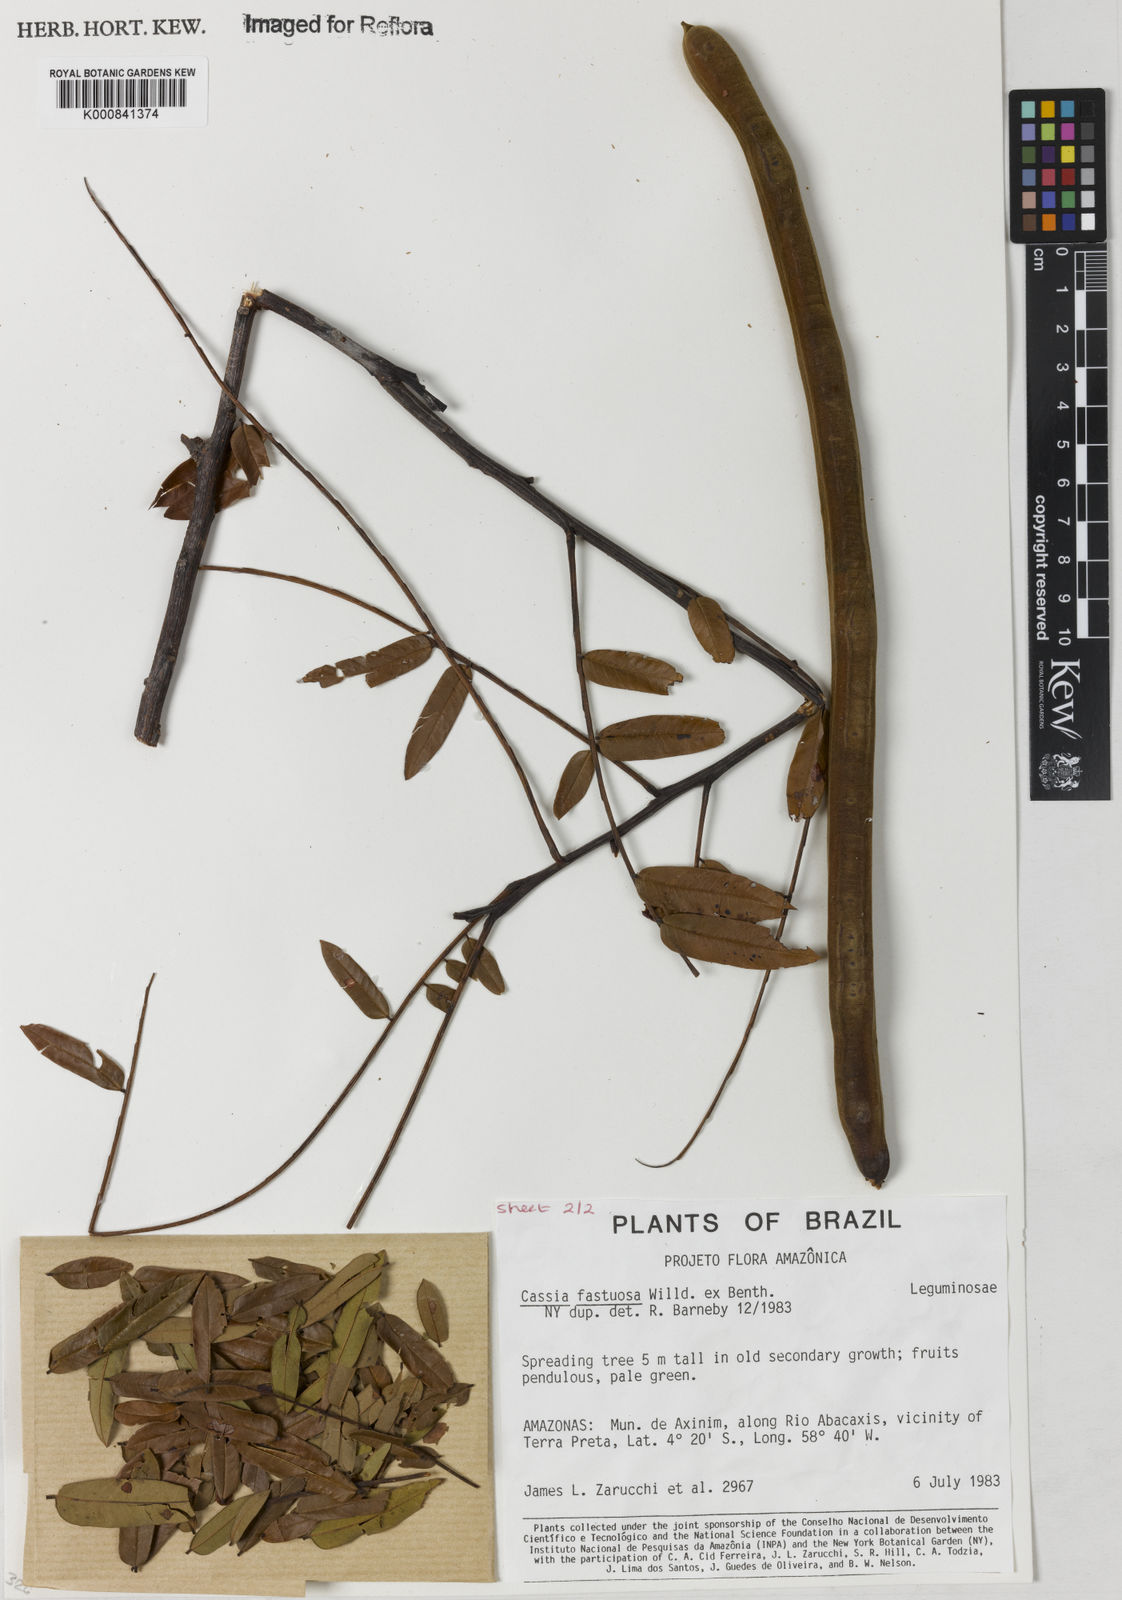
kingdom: Plantae
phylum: Tracheophyta
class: Magnoliopsida
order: Fabales
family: Fabaceae
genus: Cassia
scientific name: Cassia
